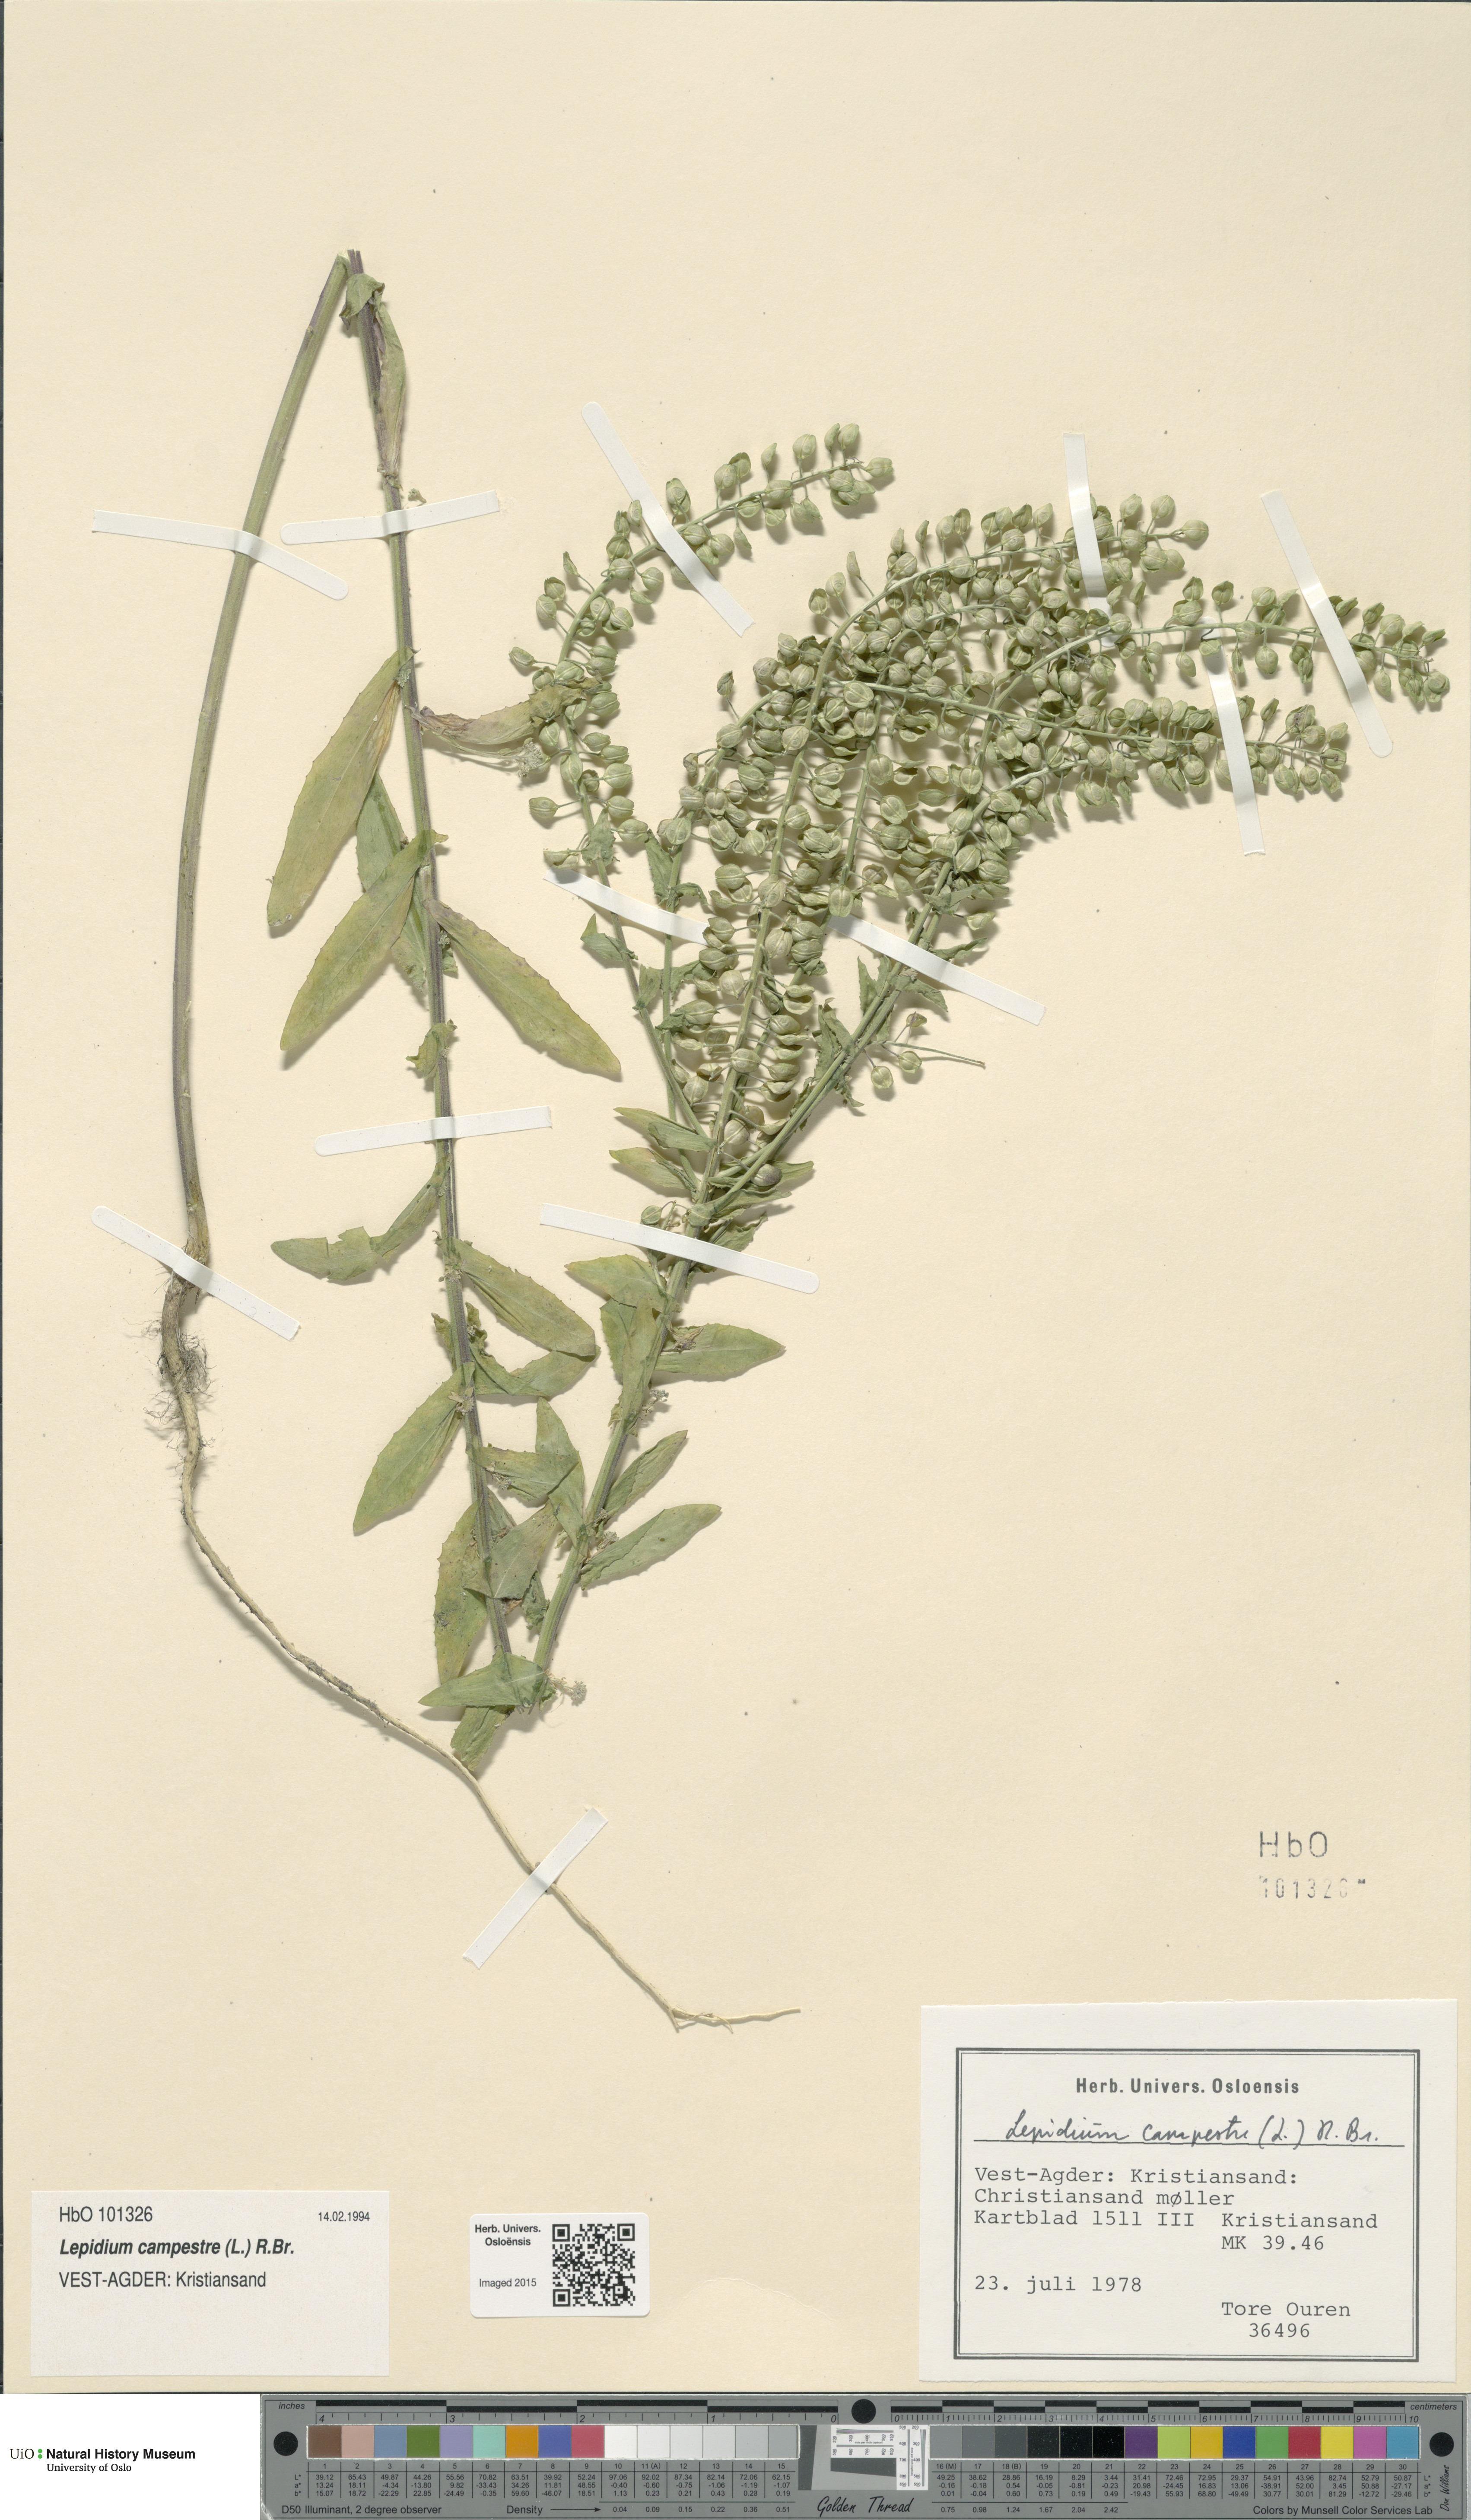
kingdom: Plantae
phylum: Tracheophyta
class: Magnoliopsida
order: Brassicales
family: Brassicaceae
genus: Lepidium
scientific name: Lepidium campestre
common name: Field pepperwort
